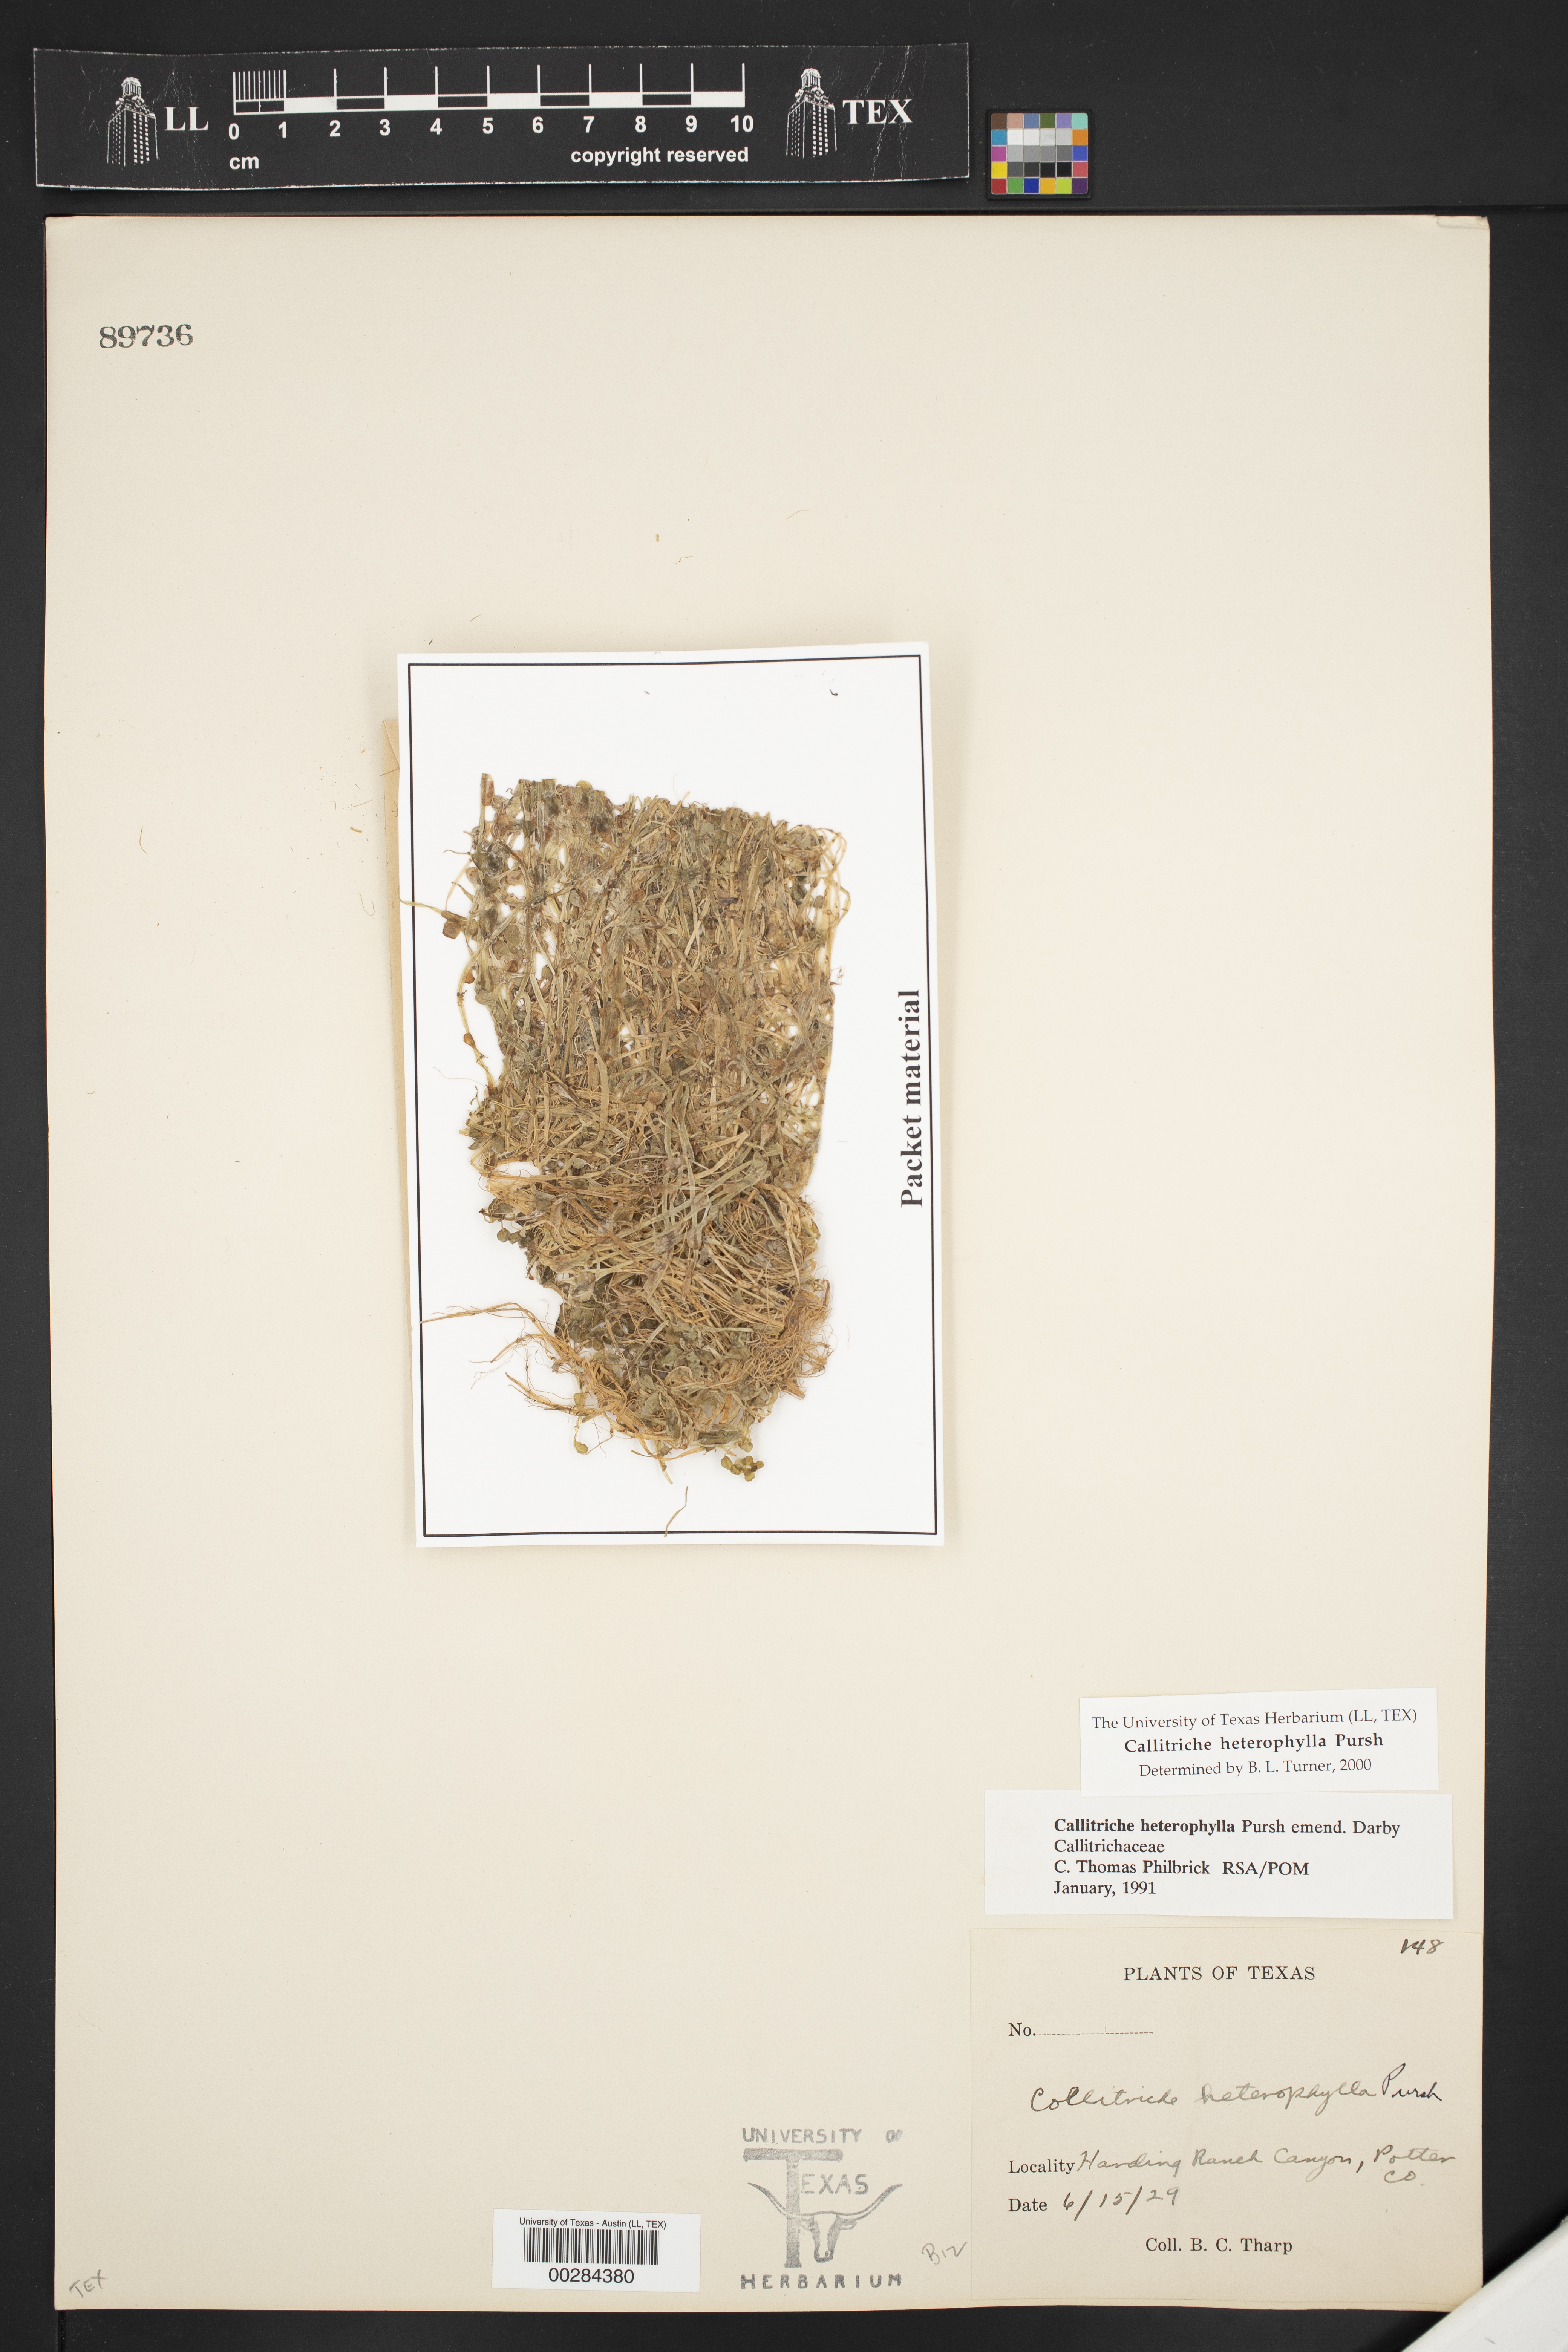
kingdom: Plantae
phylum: Tracheophyta
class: Magnoliopsida
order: Lamiales
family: Plantaginaceae
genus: Callitriche
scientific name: Callitriche heterophylla
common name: Two-headed water-starwort
